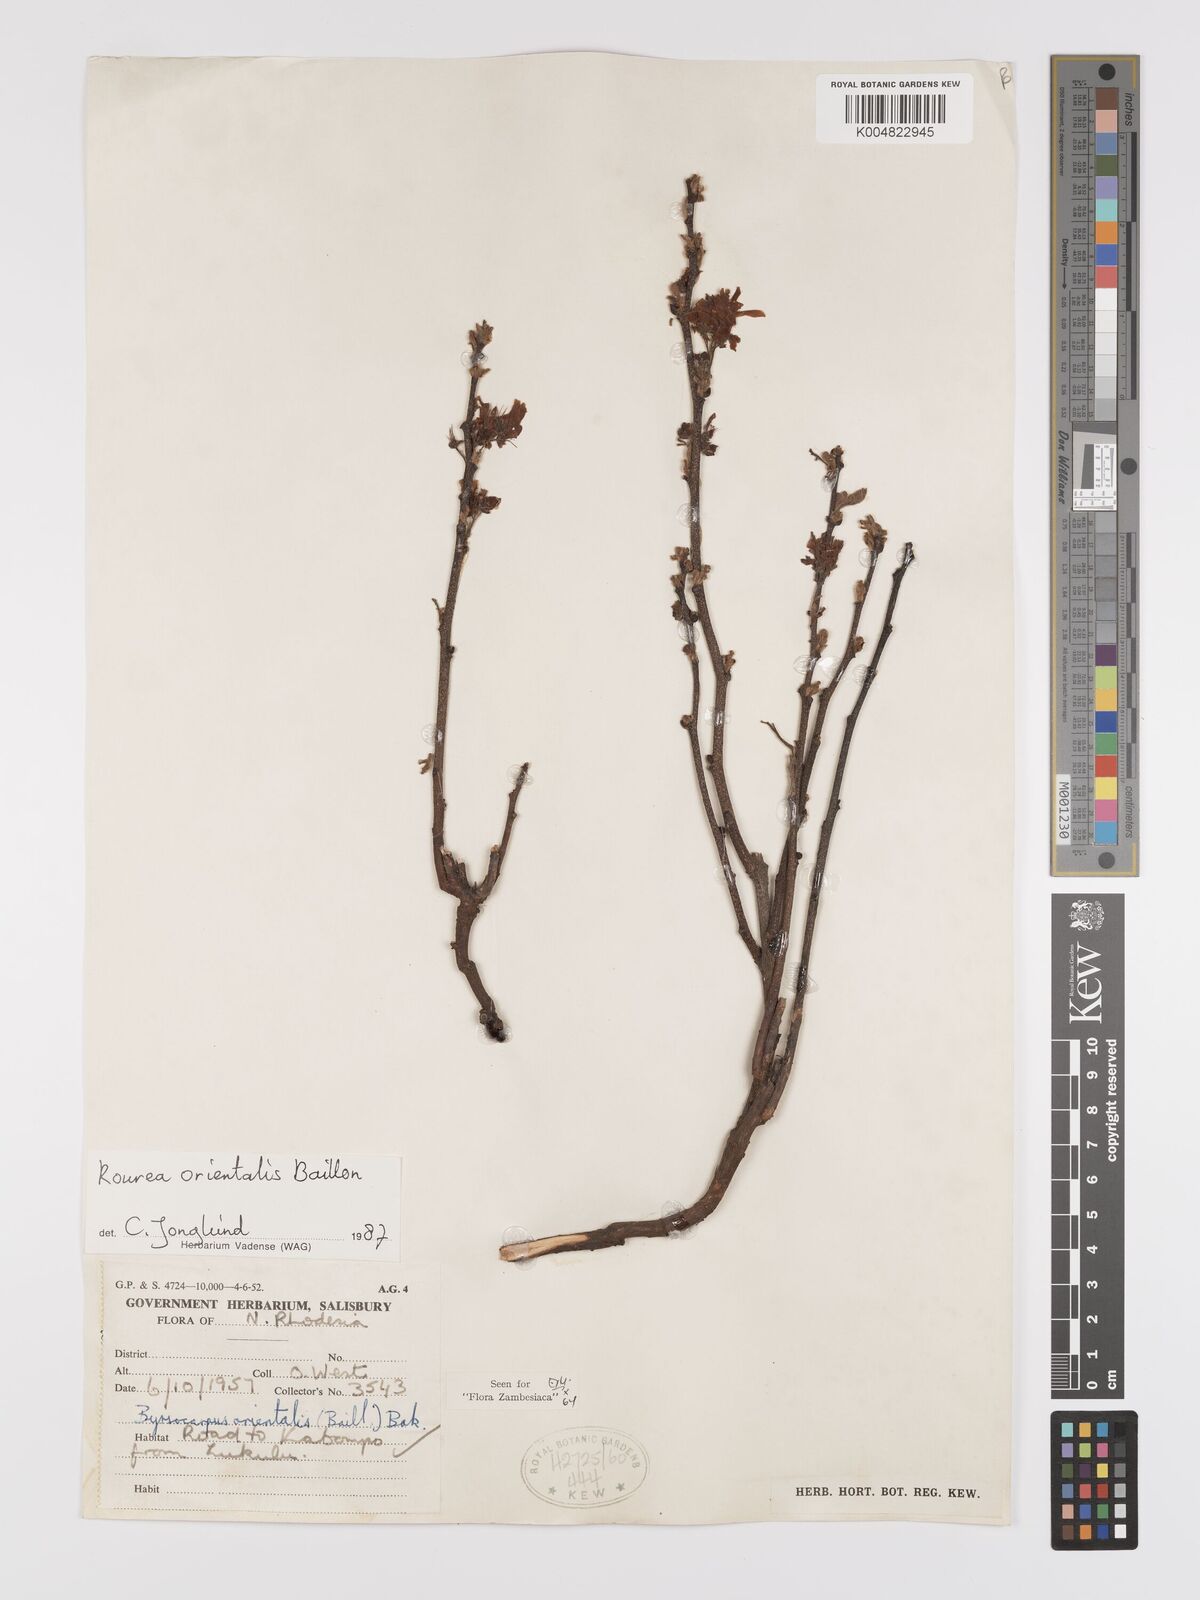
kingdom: Plantae
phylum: Tracheophyta
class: Magnoliopsida
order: Oxalidales
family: Connaraceae
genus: Rourea
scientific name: Rourea orientalis
